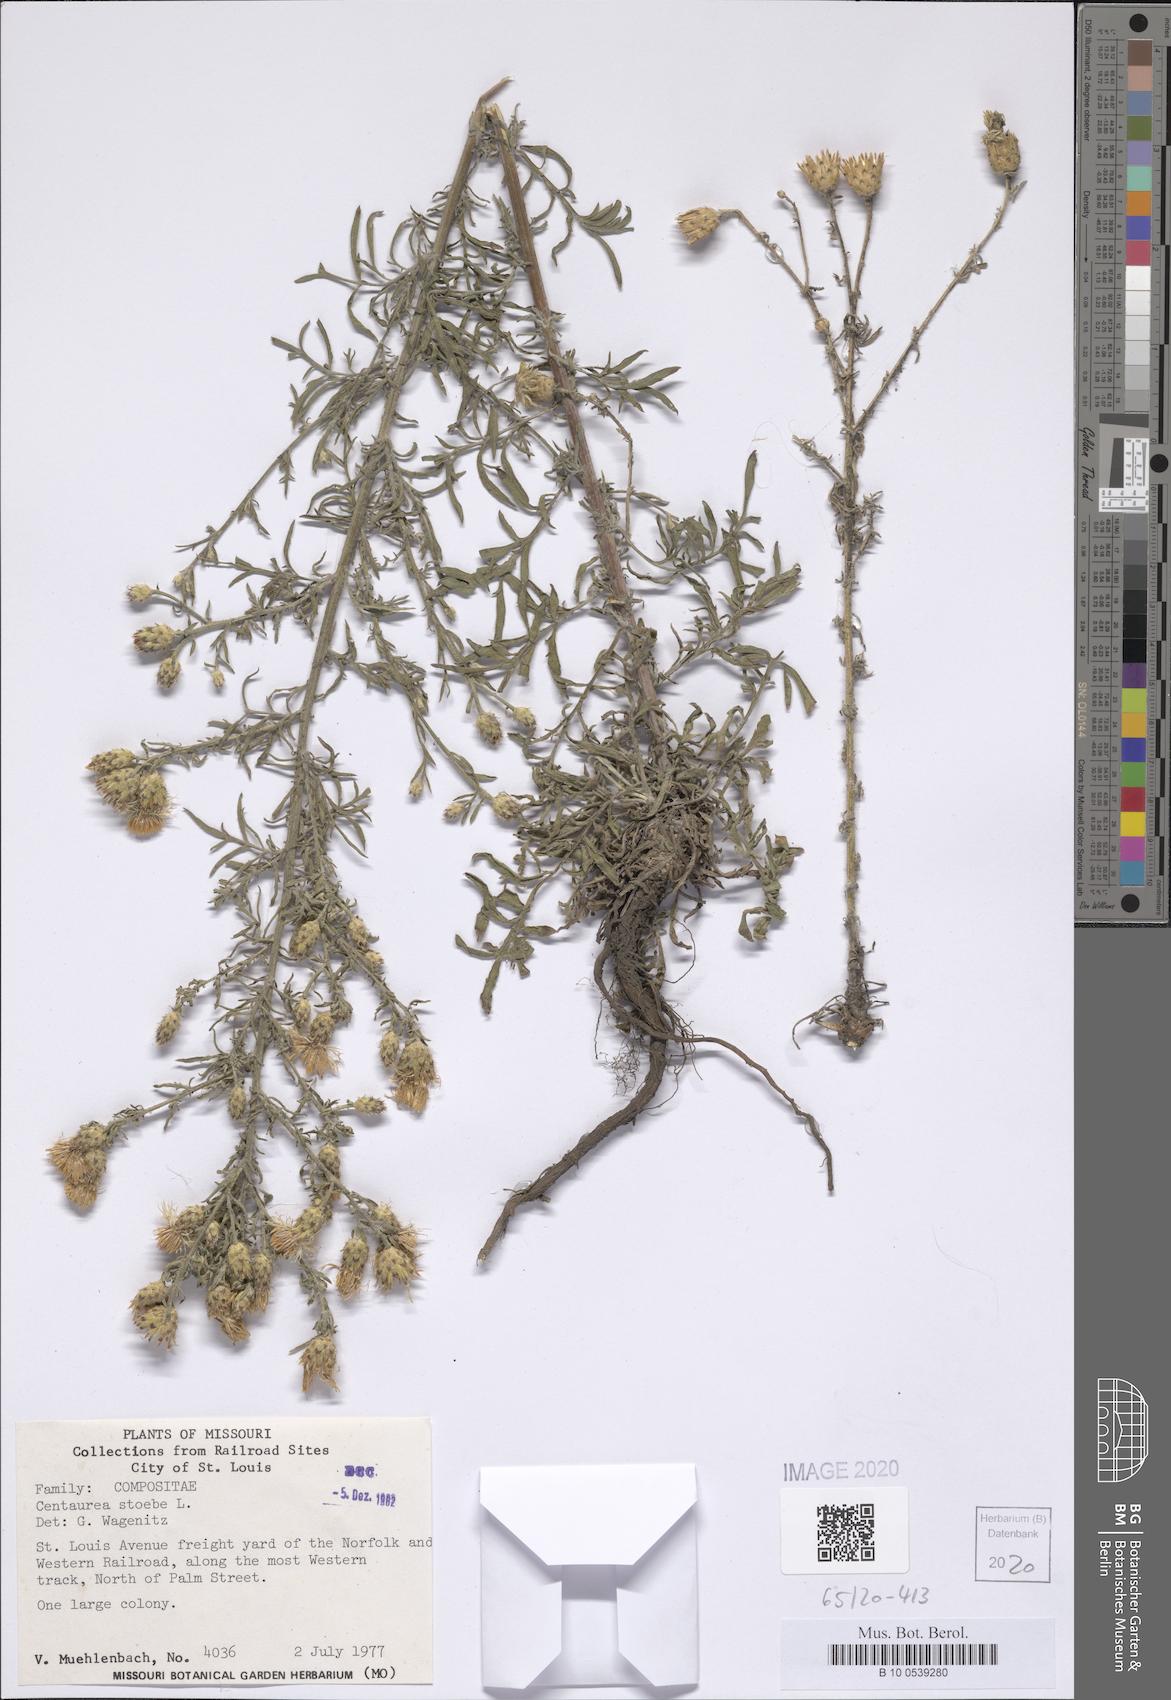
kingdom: Plantae
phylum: Tracheophyta
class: Magnoliopsida
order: Asterales
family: Asteraceae
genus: Centaurea
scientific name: Centaurea stoebe
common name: Spotted knapweed
